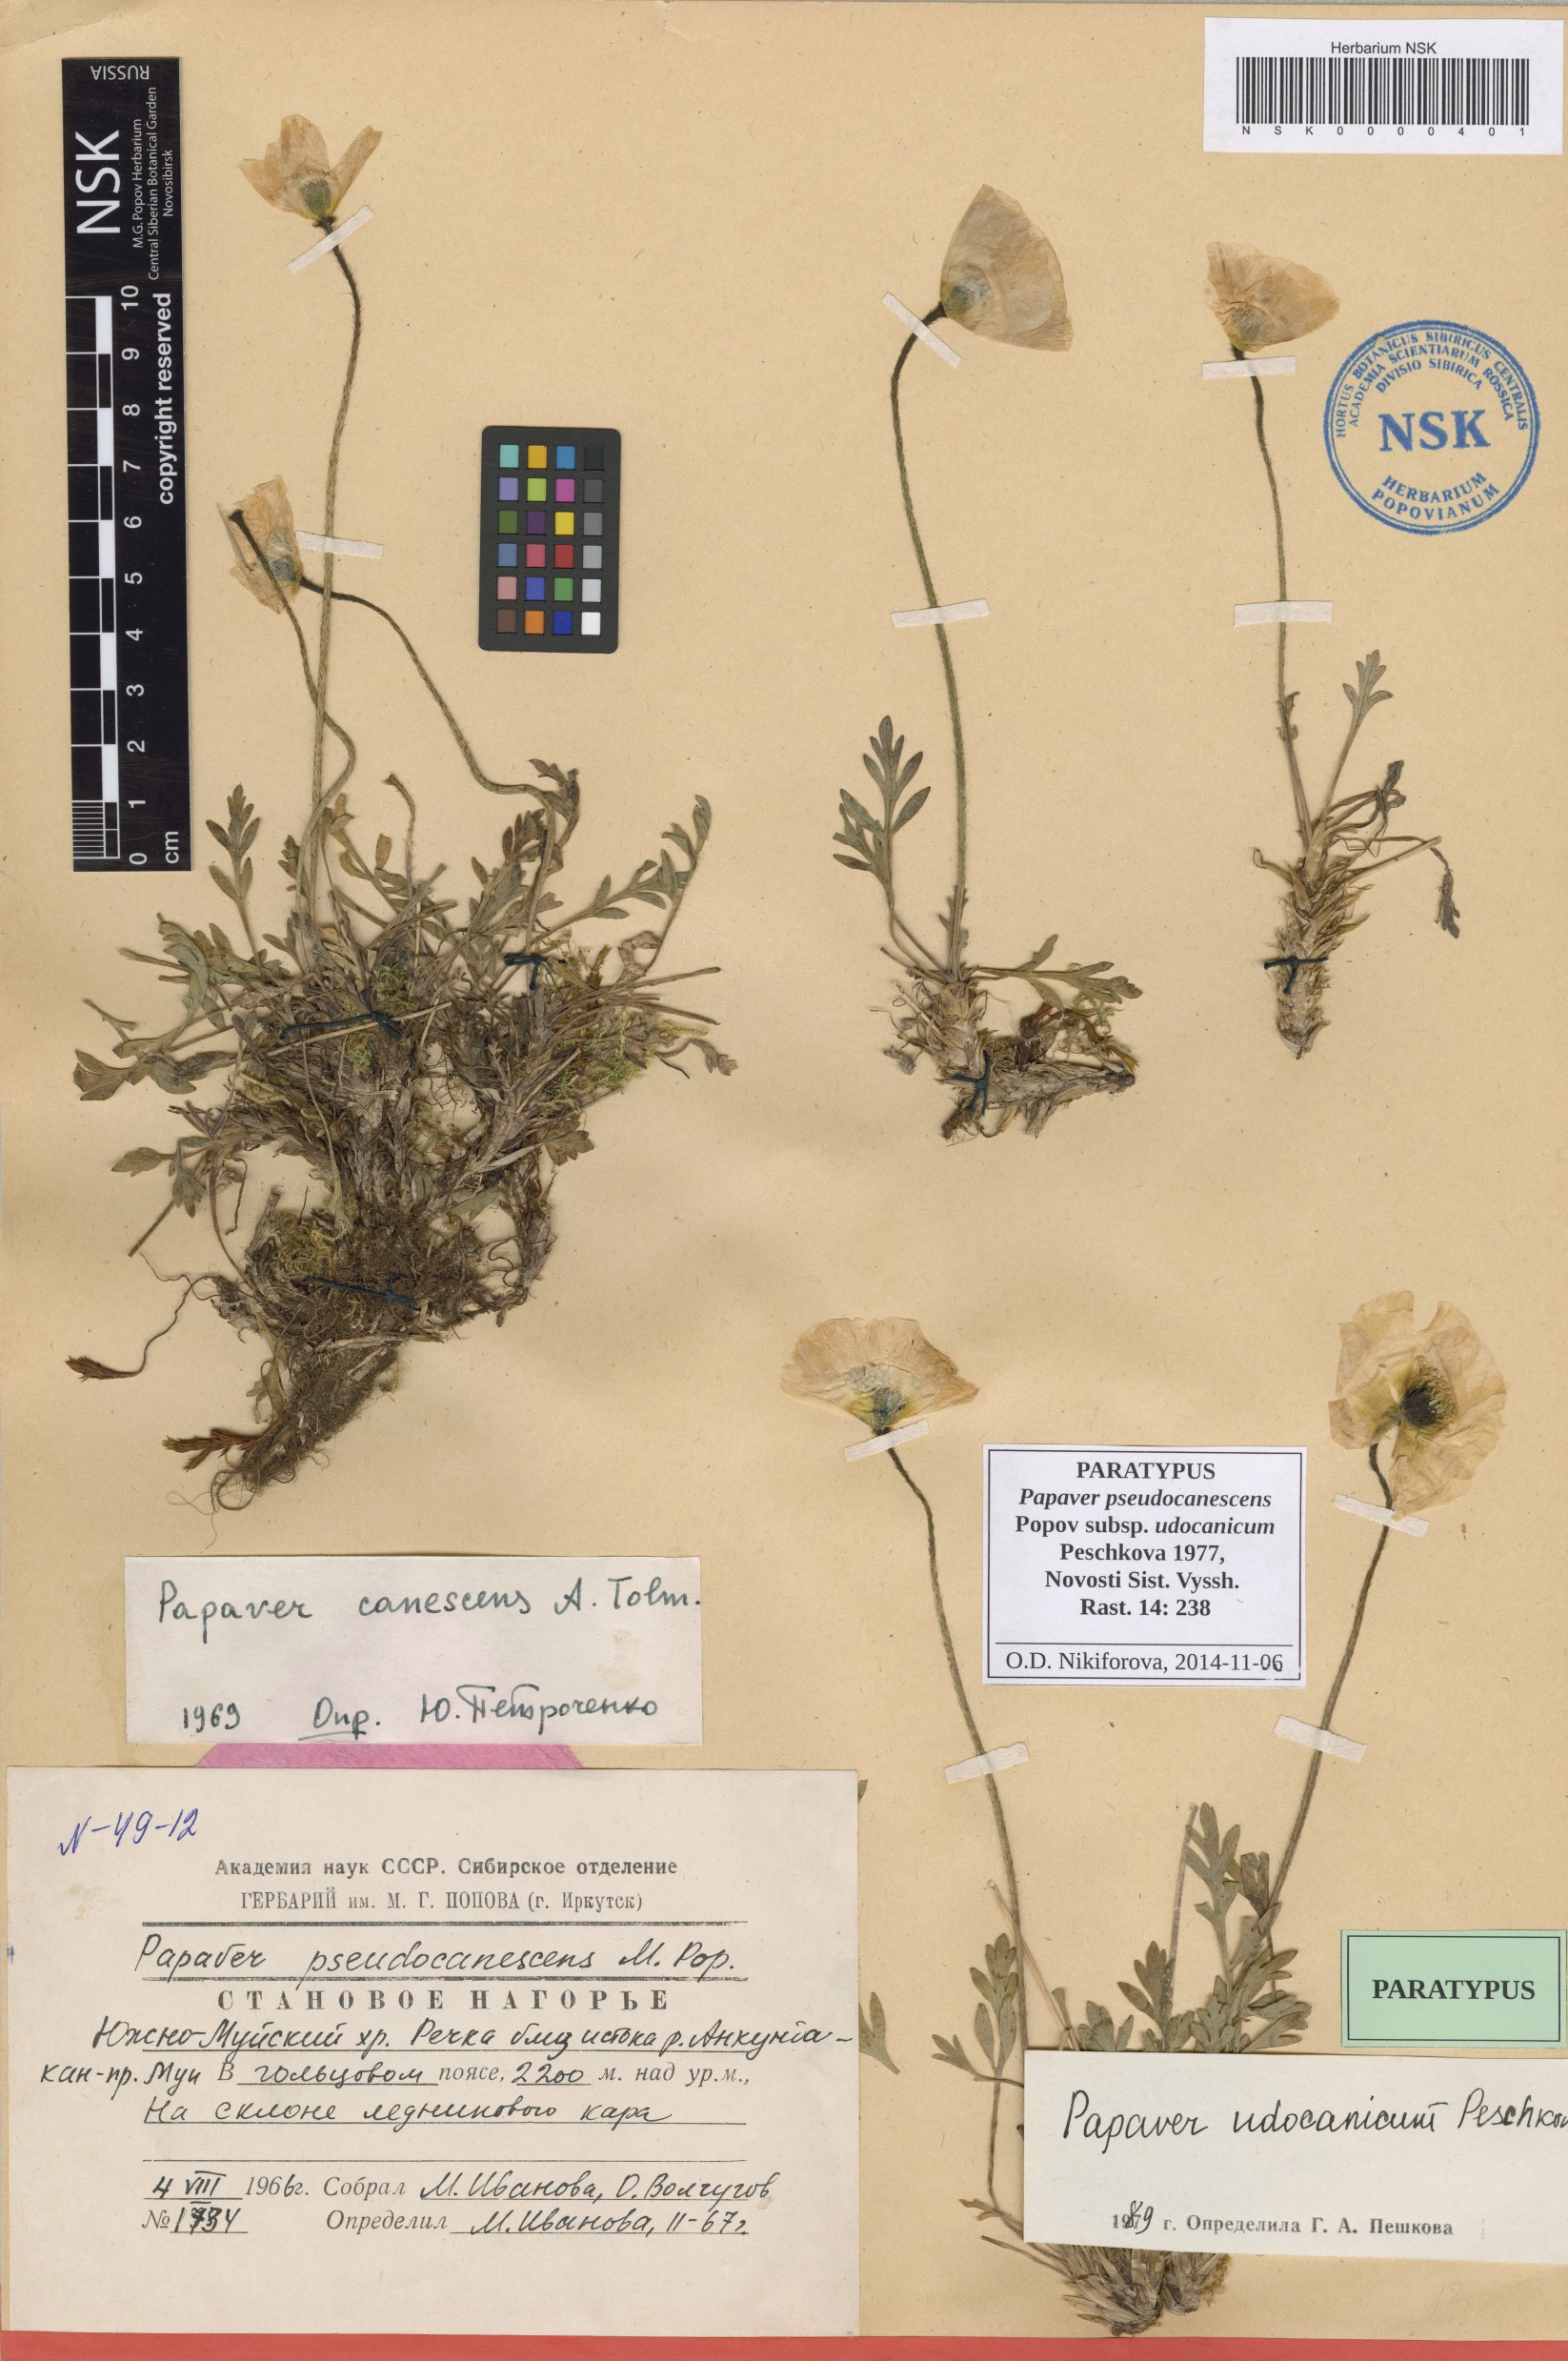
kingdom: Plantae
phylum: Tracheophyta
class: Magnoliopsida
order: Ranunculales
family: Papaveraceae
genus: Papaver
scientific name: Papaver udocanicum
